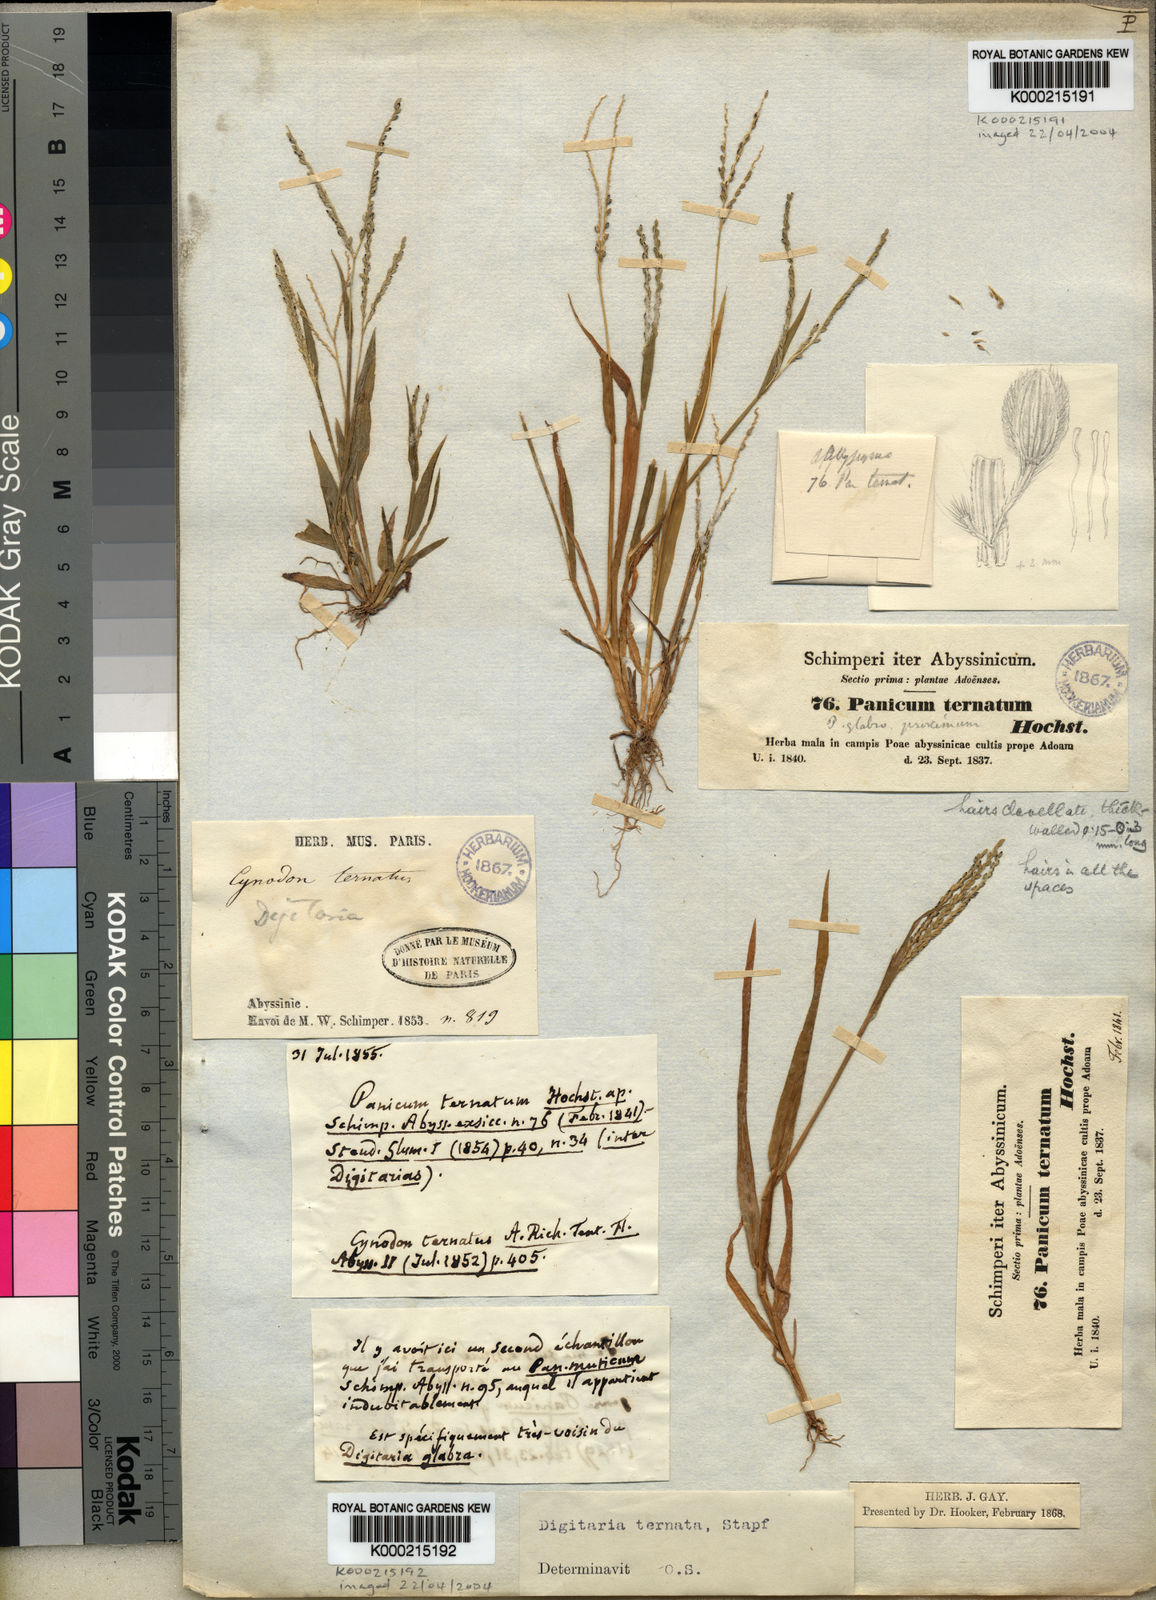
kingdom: Plantae
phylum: Tracheophyta
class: Liliopsida
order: Poales
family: Poaceae
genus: Digitaria
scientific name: Digitaria ternata
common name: Blackseed crabgrass
